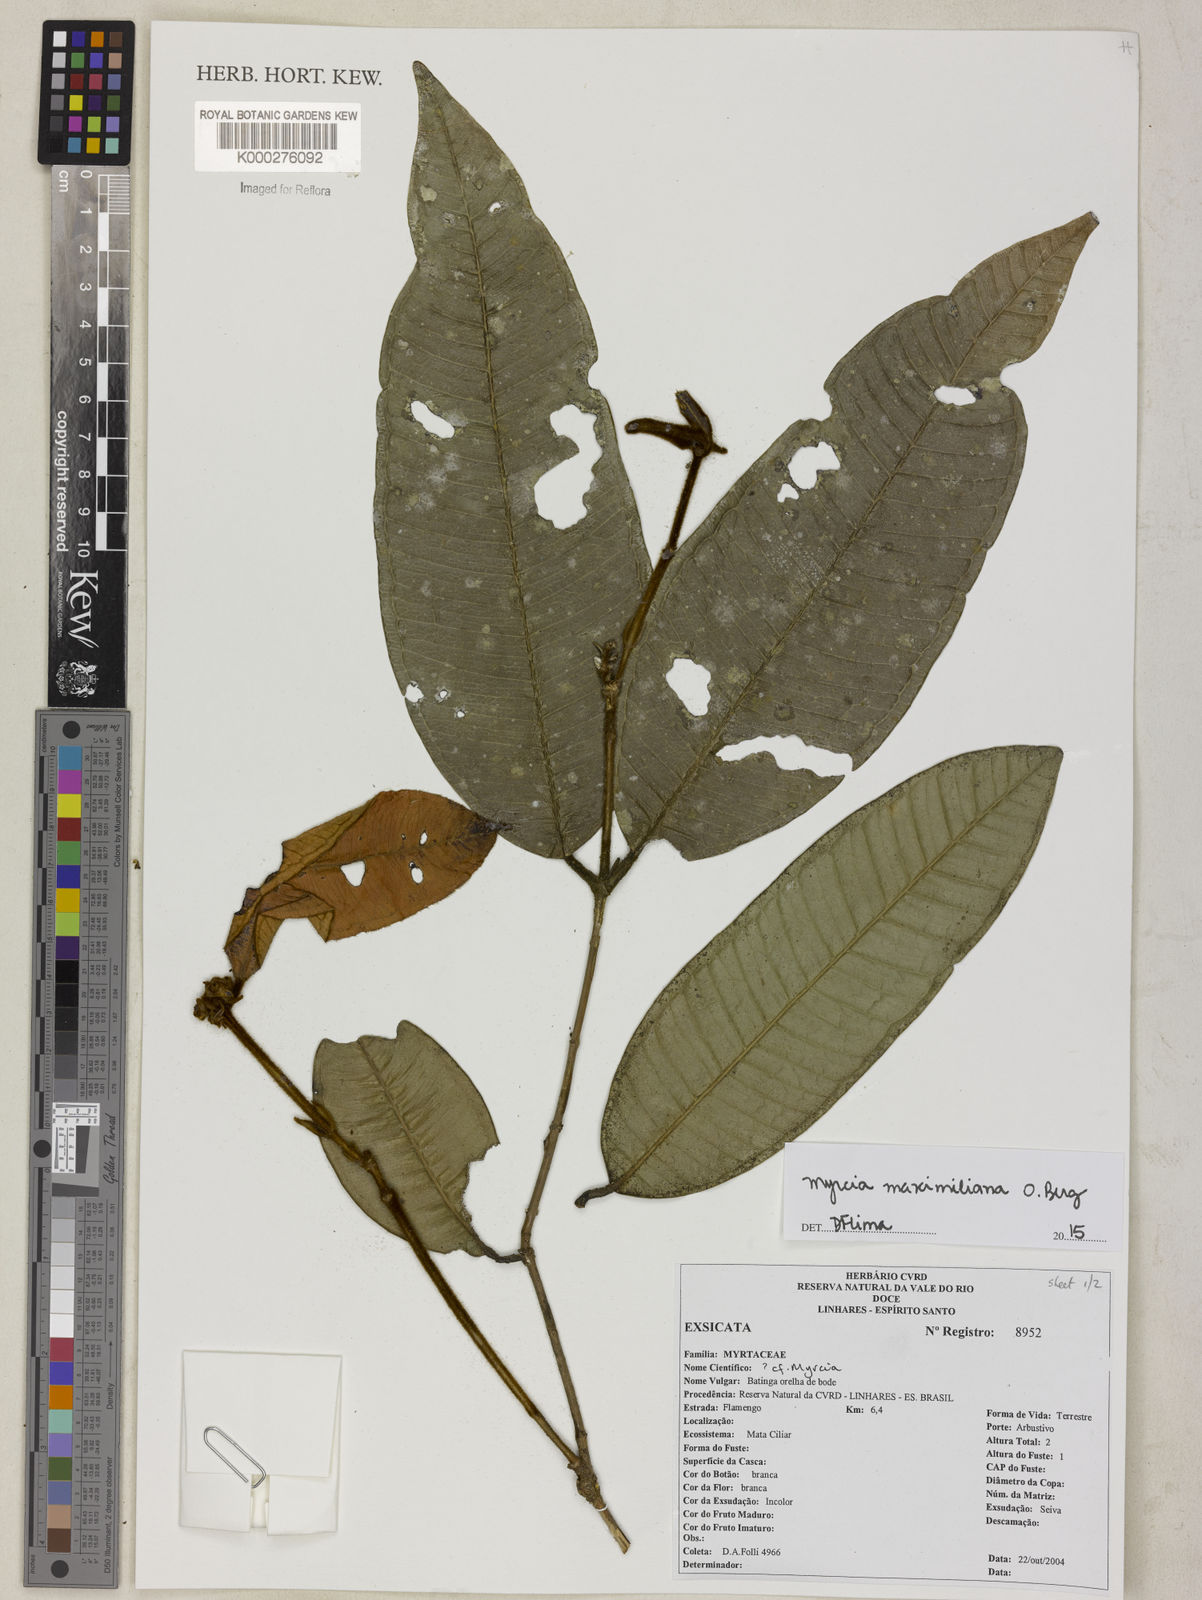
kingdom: Plantae
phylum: Tracheophyta
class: Magnoliopsida
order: Myrtales
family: Myrtaceae
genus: Myrcia
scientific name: Myrcia
